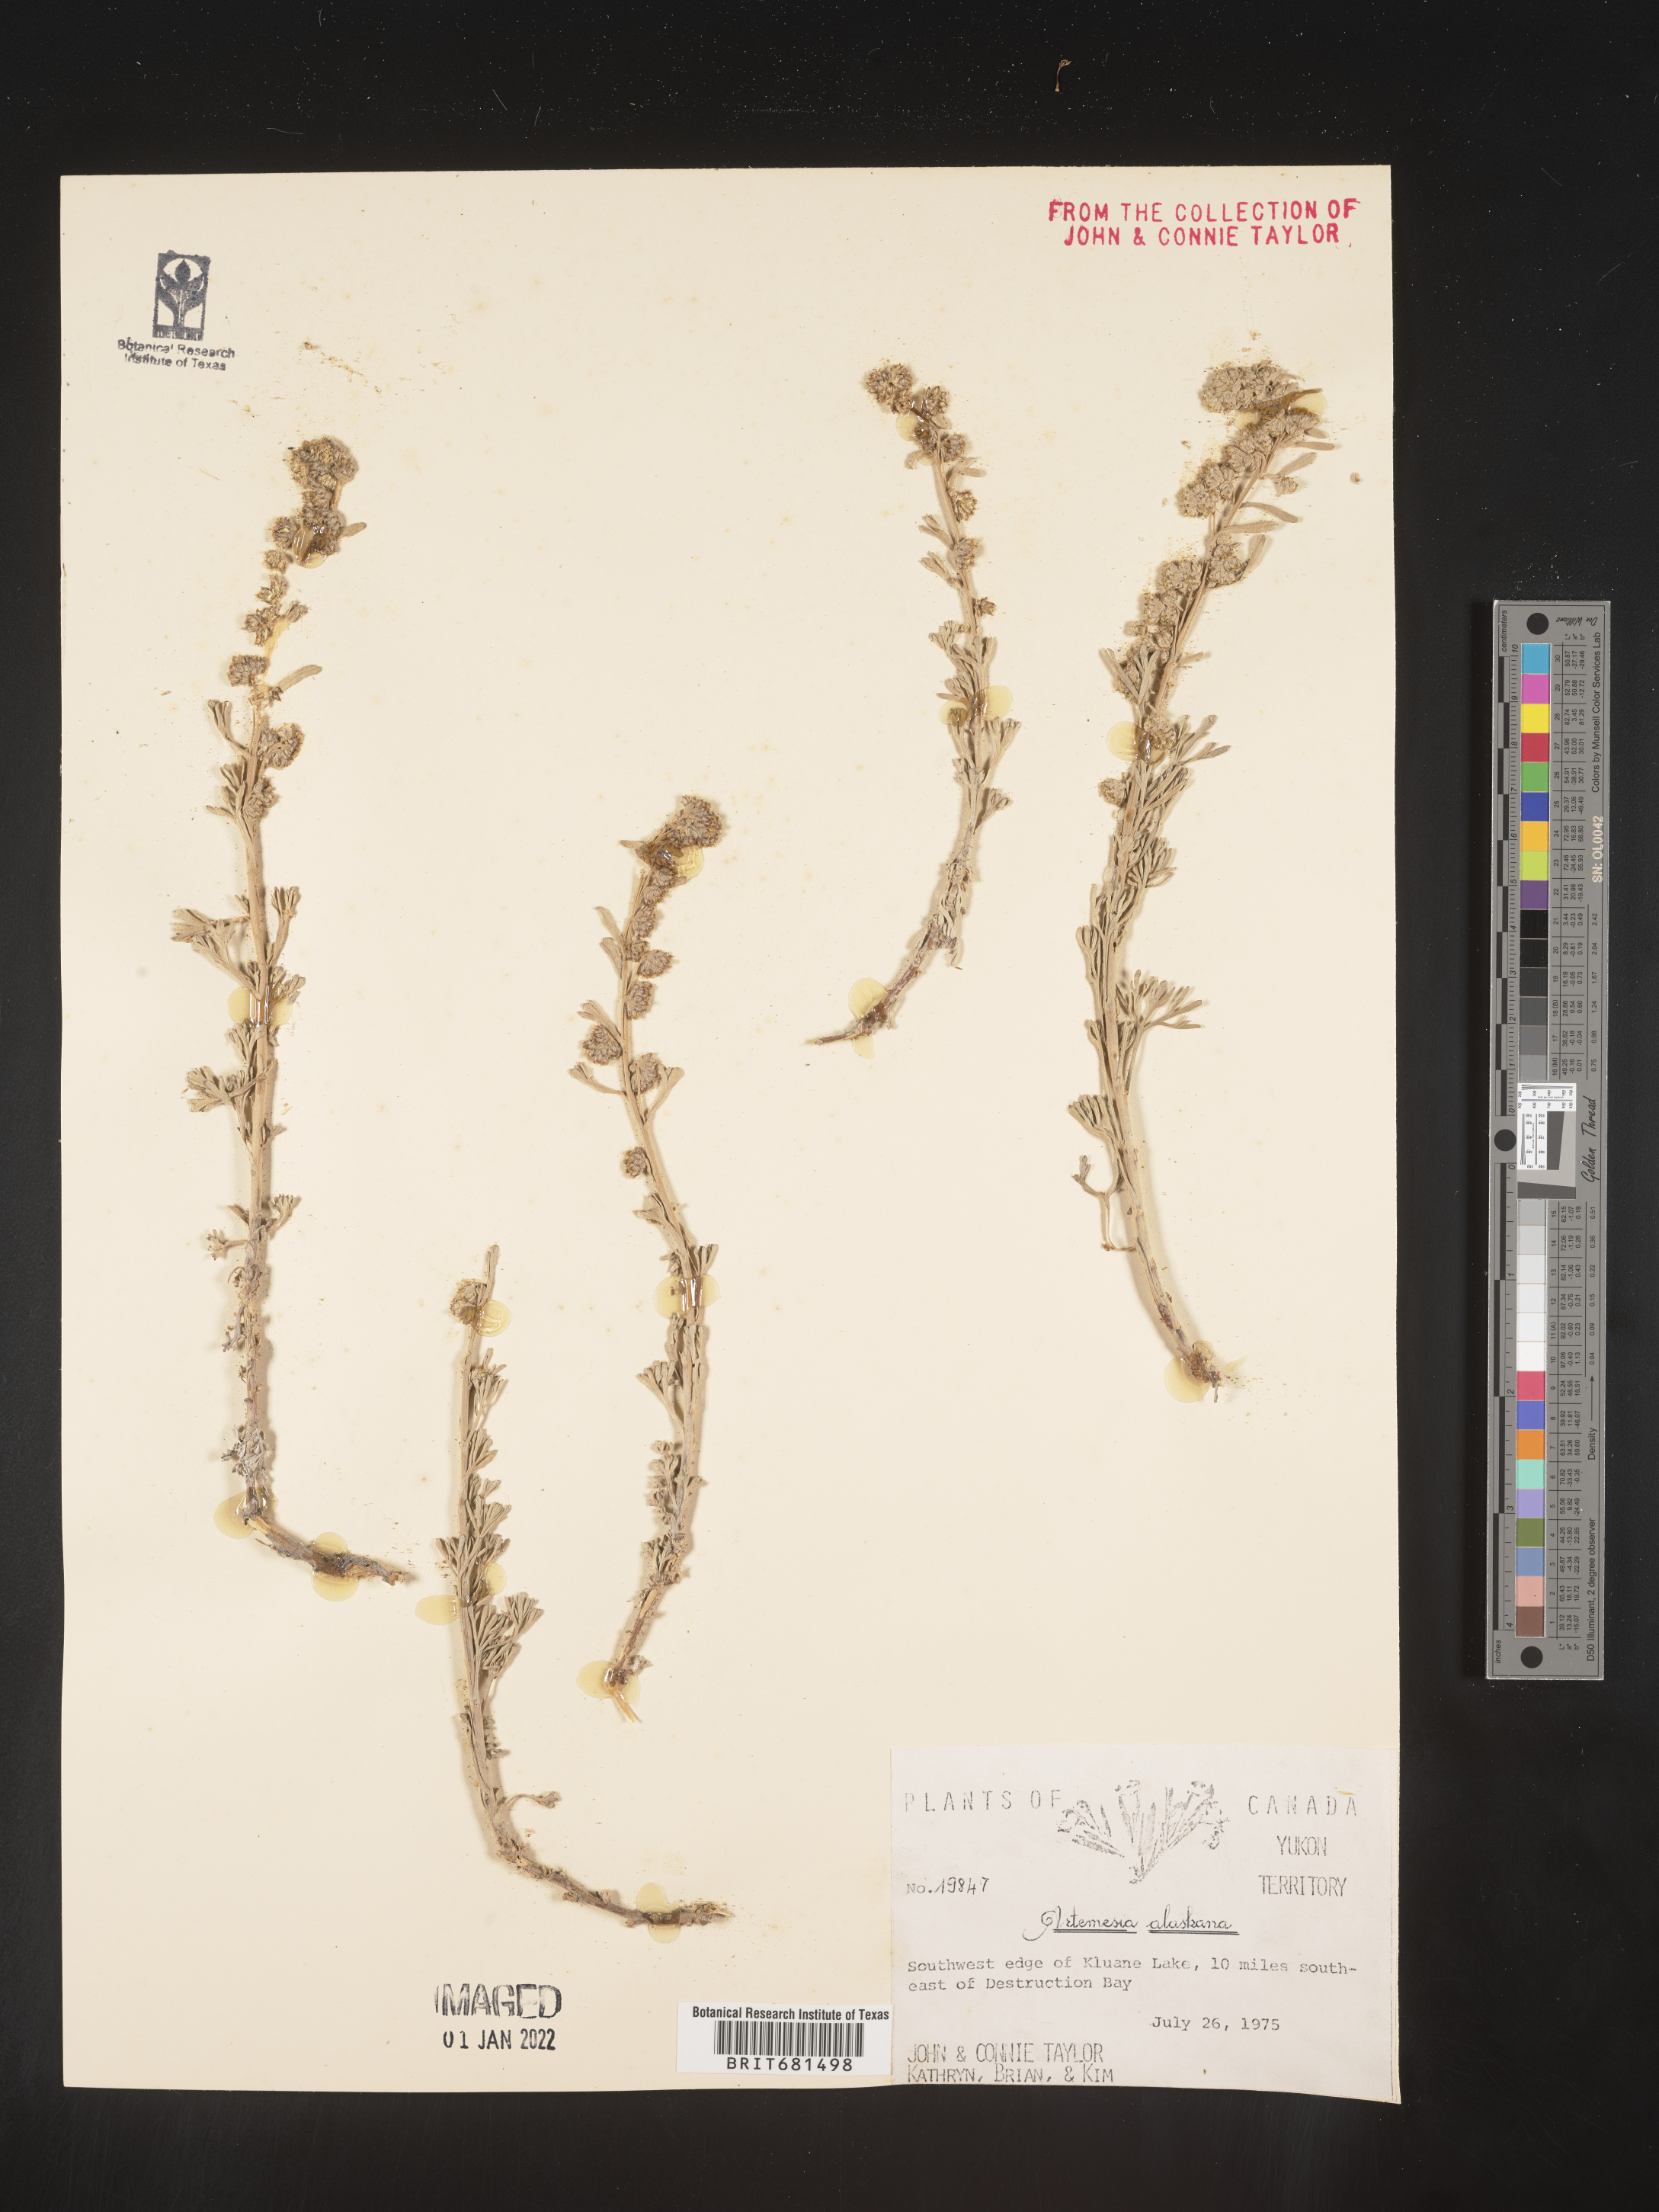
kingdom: Plantae
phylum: Tracheophyta
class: Magnoliopsida
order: Asterales
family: Asteraceae
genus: Artemisia
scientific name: Artemisia kruhsiana
